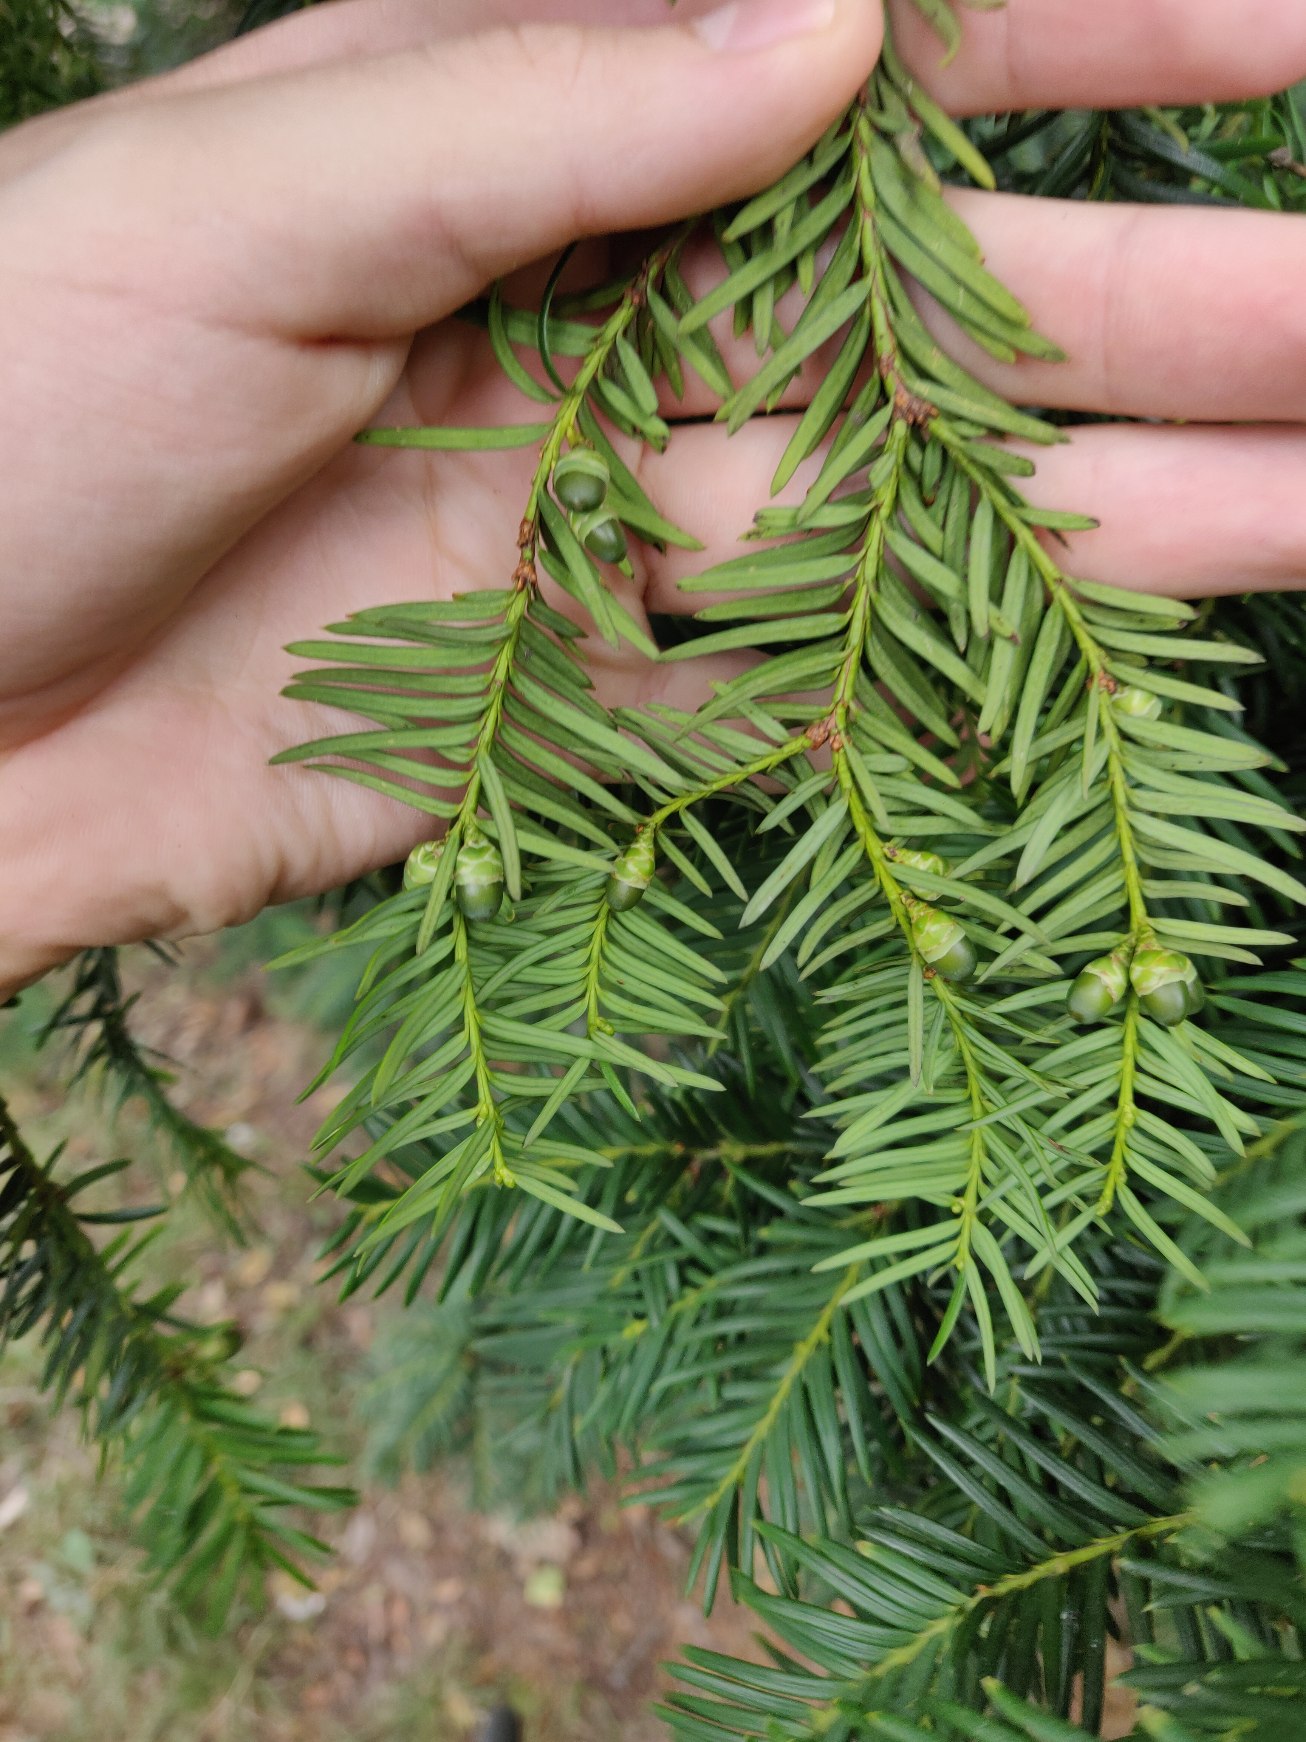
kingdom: Plantae
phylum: Tracheophyta
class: Pinopsida
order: Pinales
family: Taxaceae
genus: Taxus
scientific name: Taxus baccata
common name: Almindelig taks
